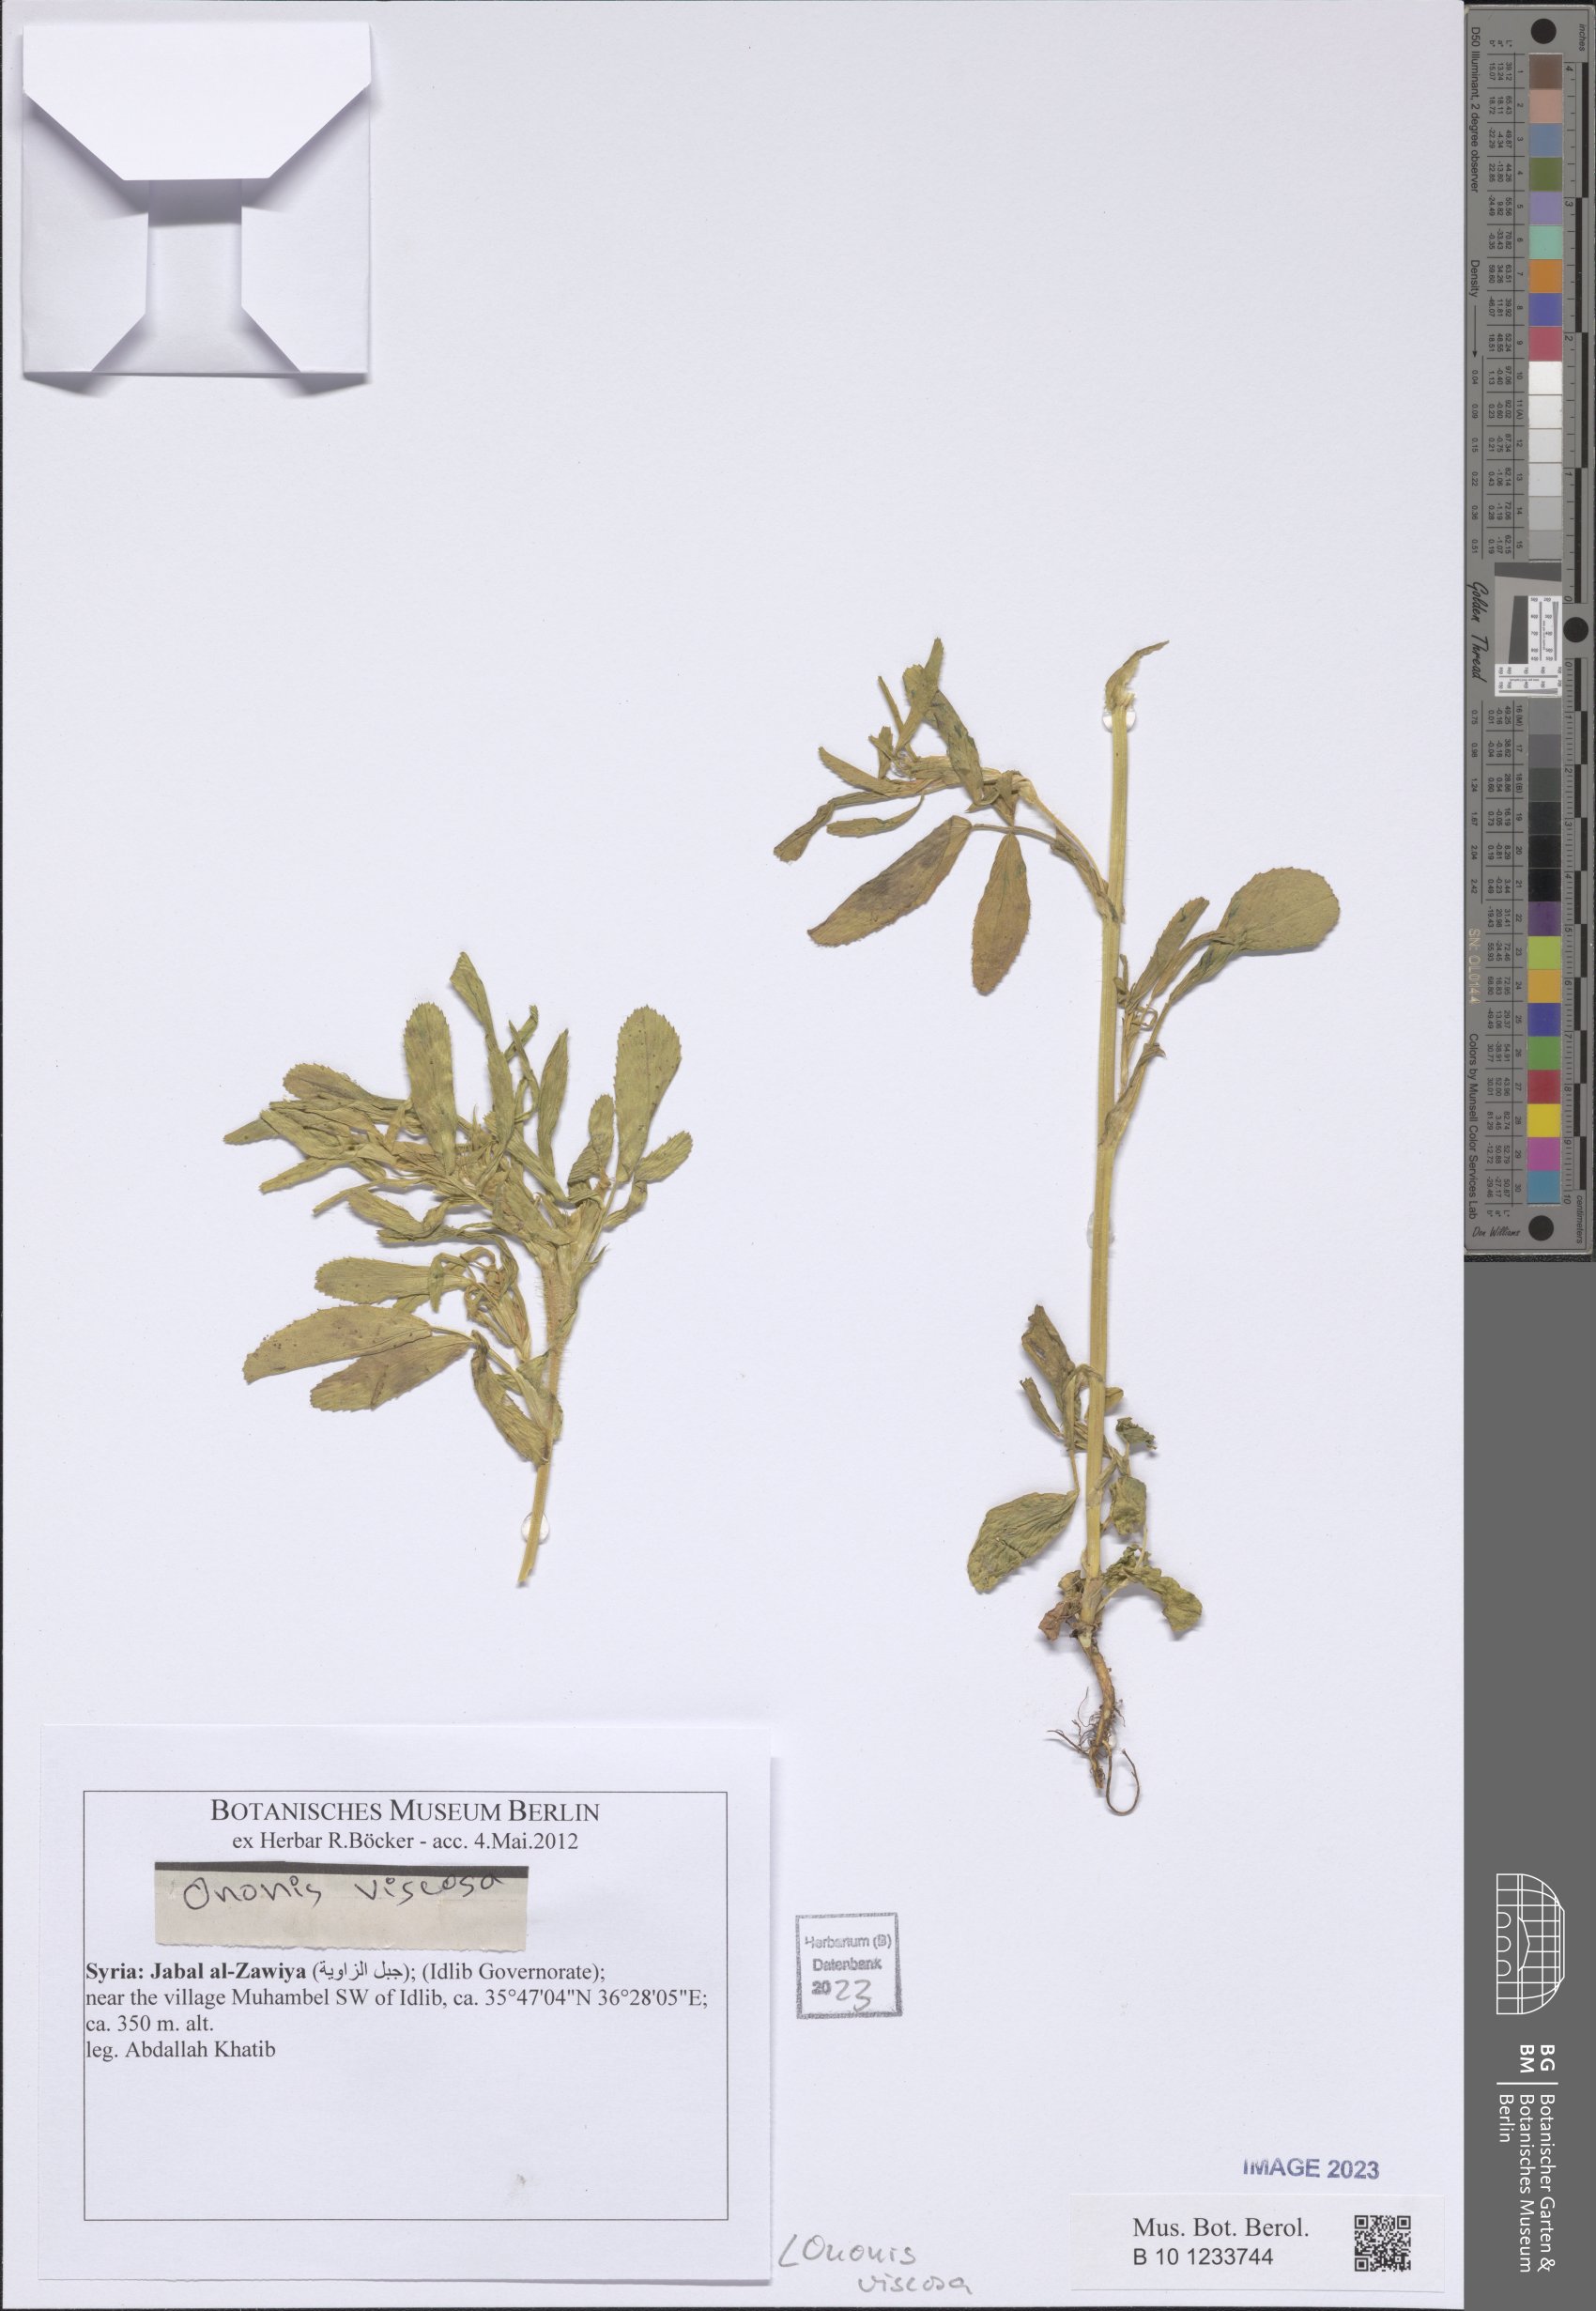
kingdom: Plantae
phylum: Tracheophyta
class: Magnoliopsida
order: Fabales
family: Fabaceae
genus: Ononis
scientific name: Ononis viscosa
